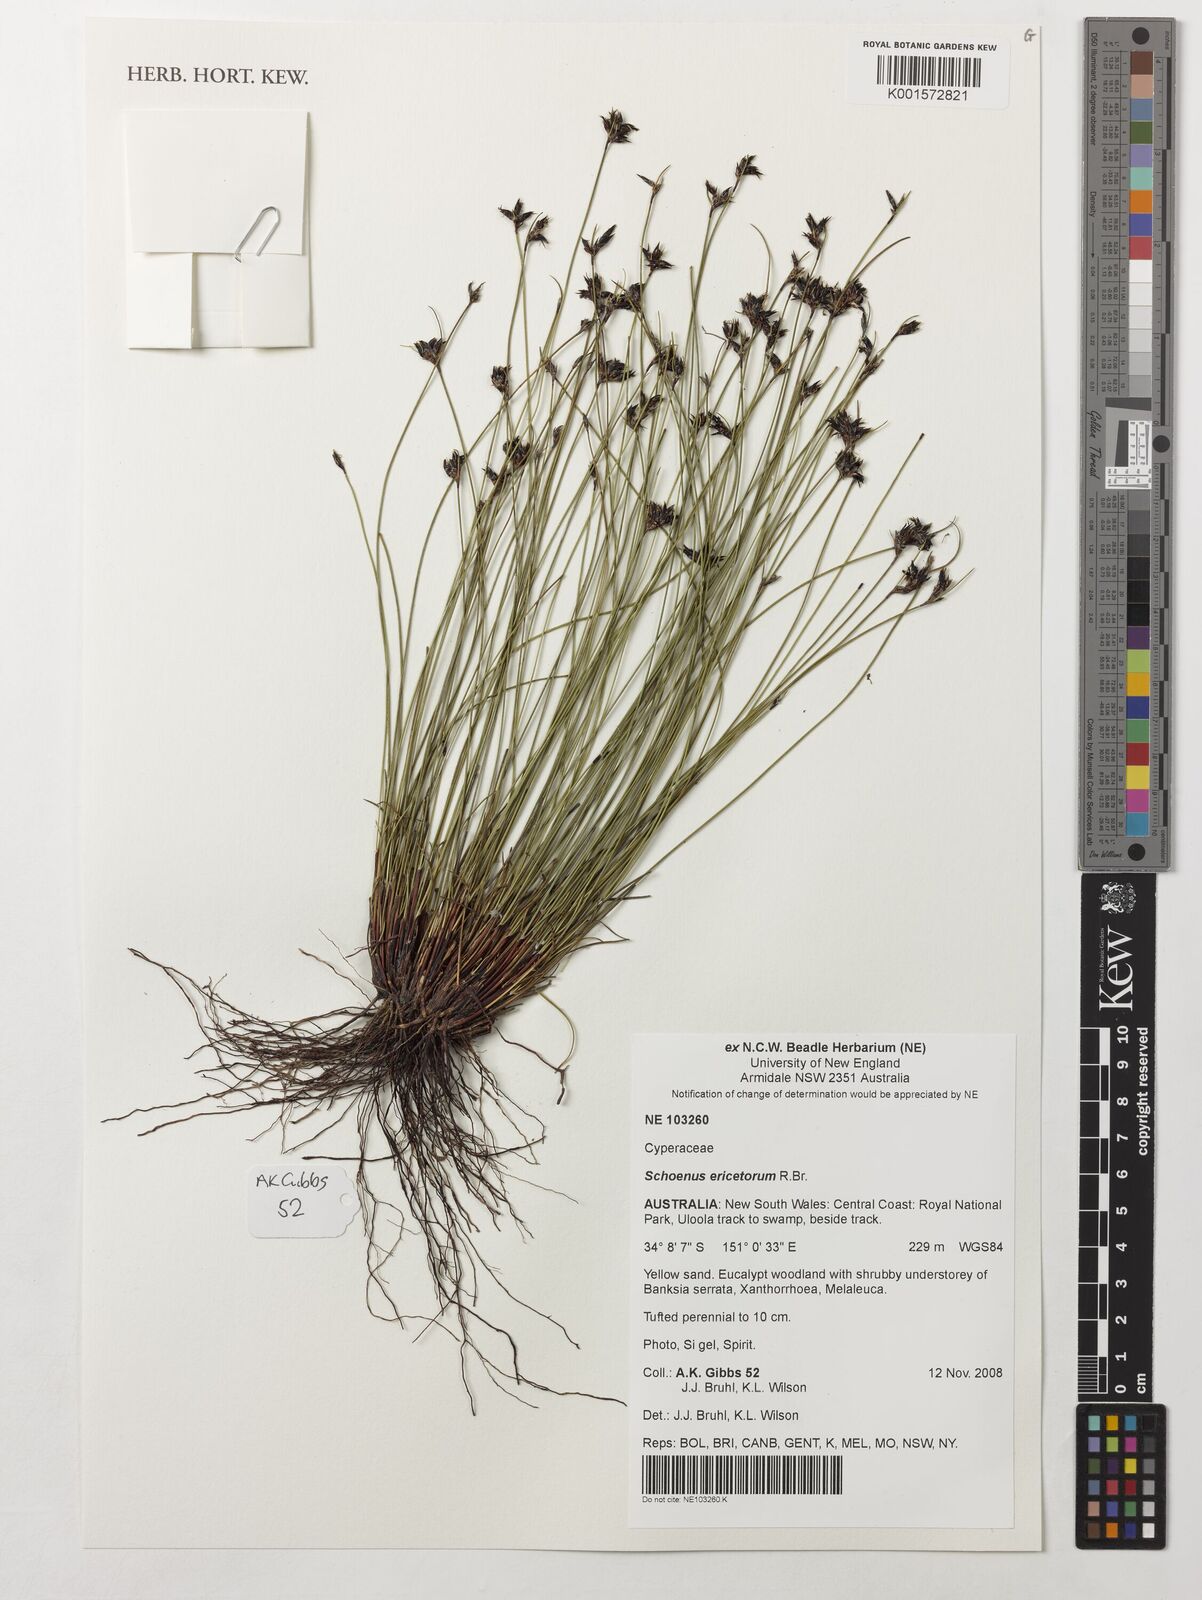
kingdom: Plantae
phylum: Tracheophyta
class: Liliopsida
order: Poales
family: Cyperaceae
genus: Schoenus
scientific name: Schoenus ericetorum
